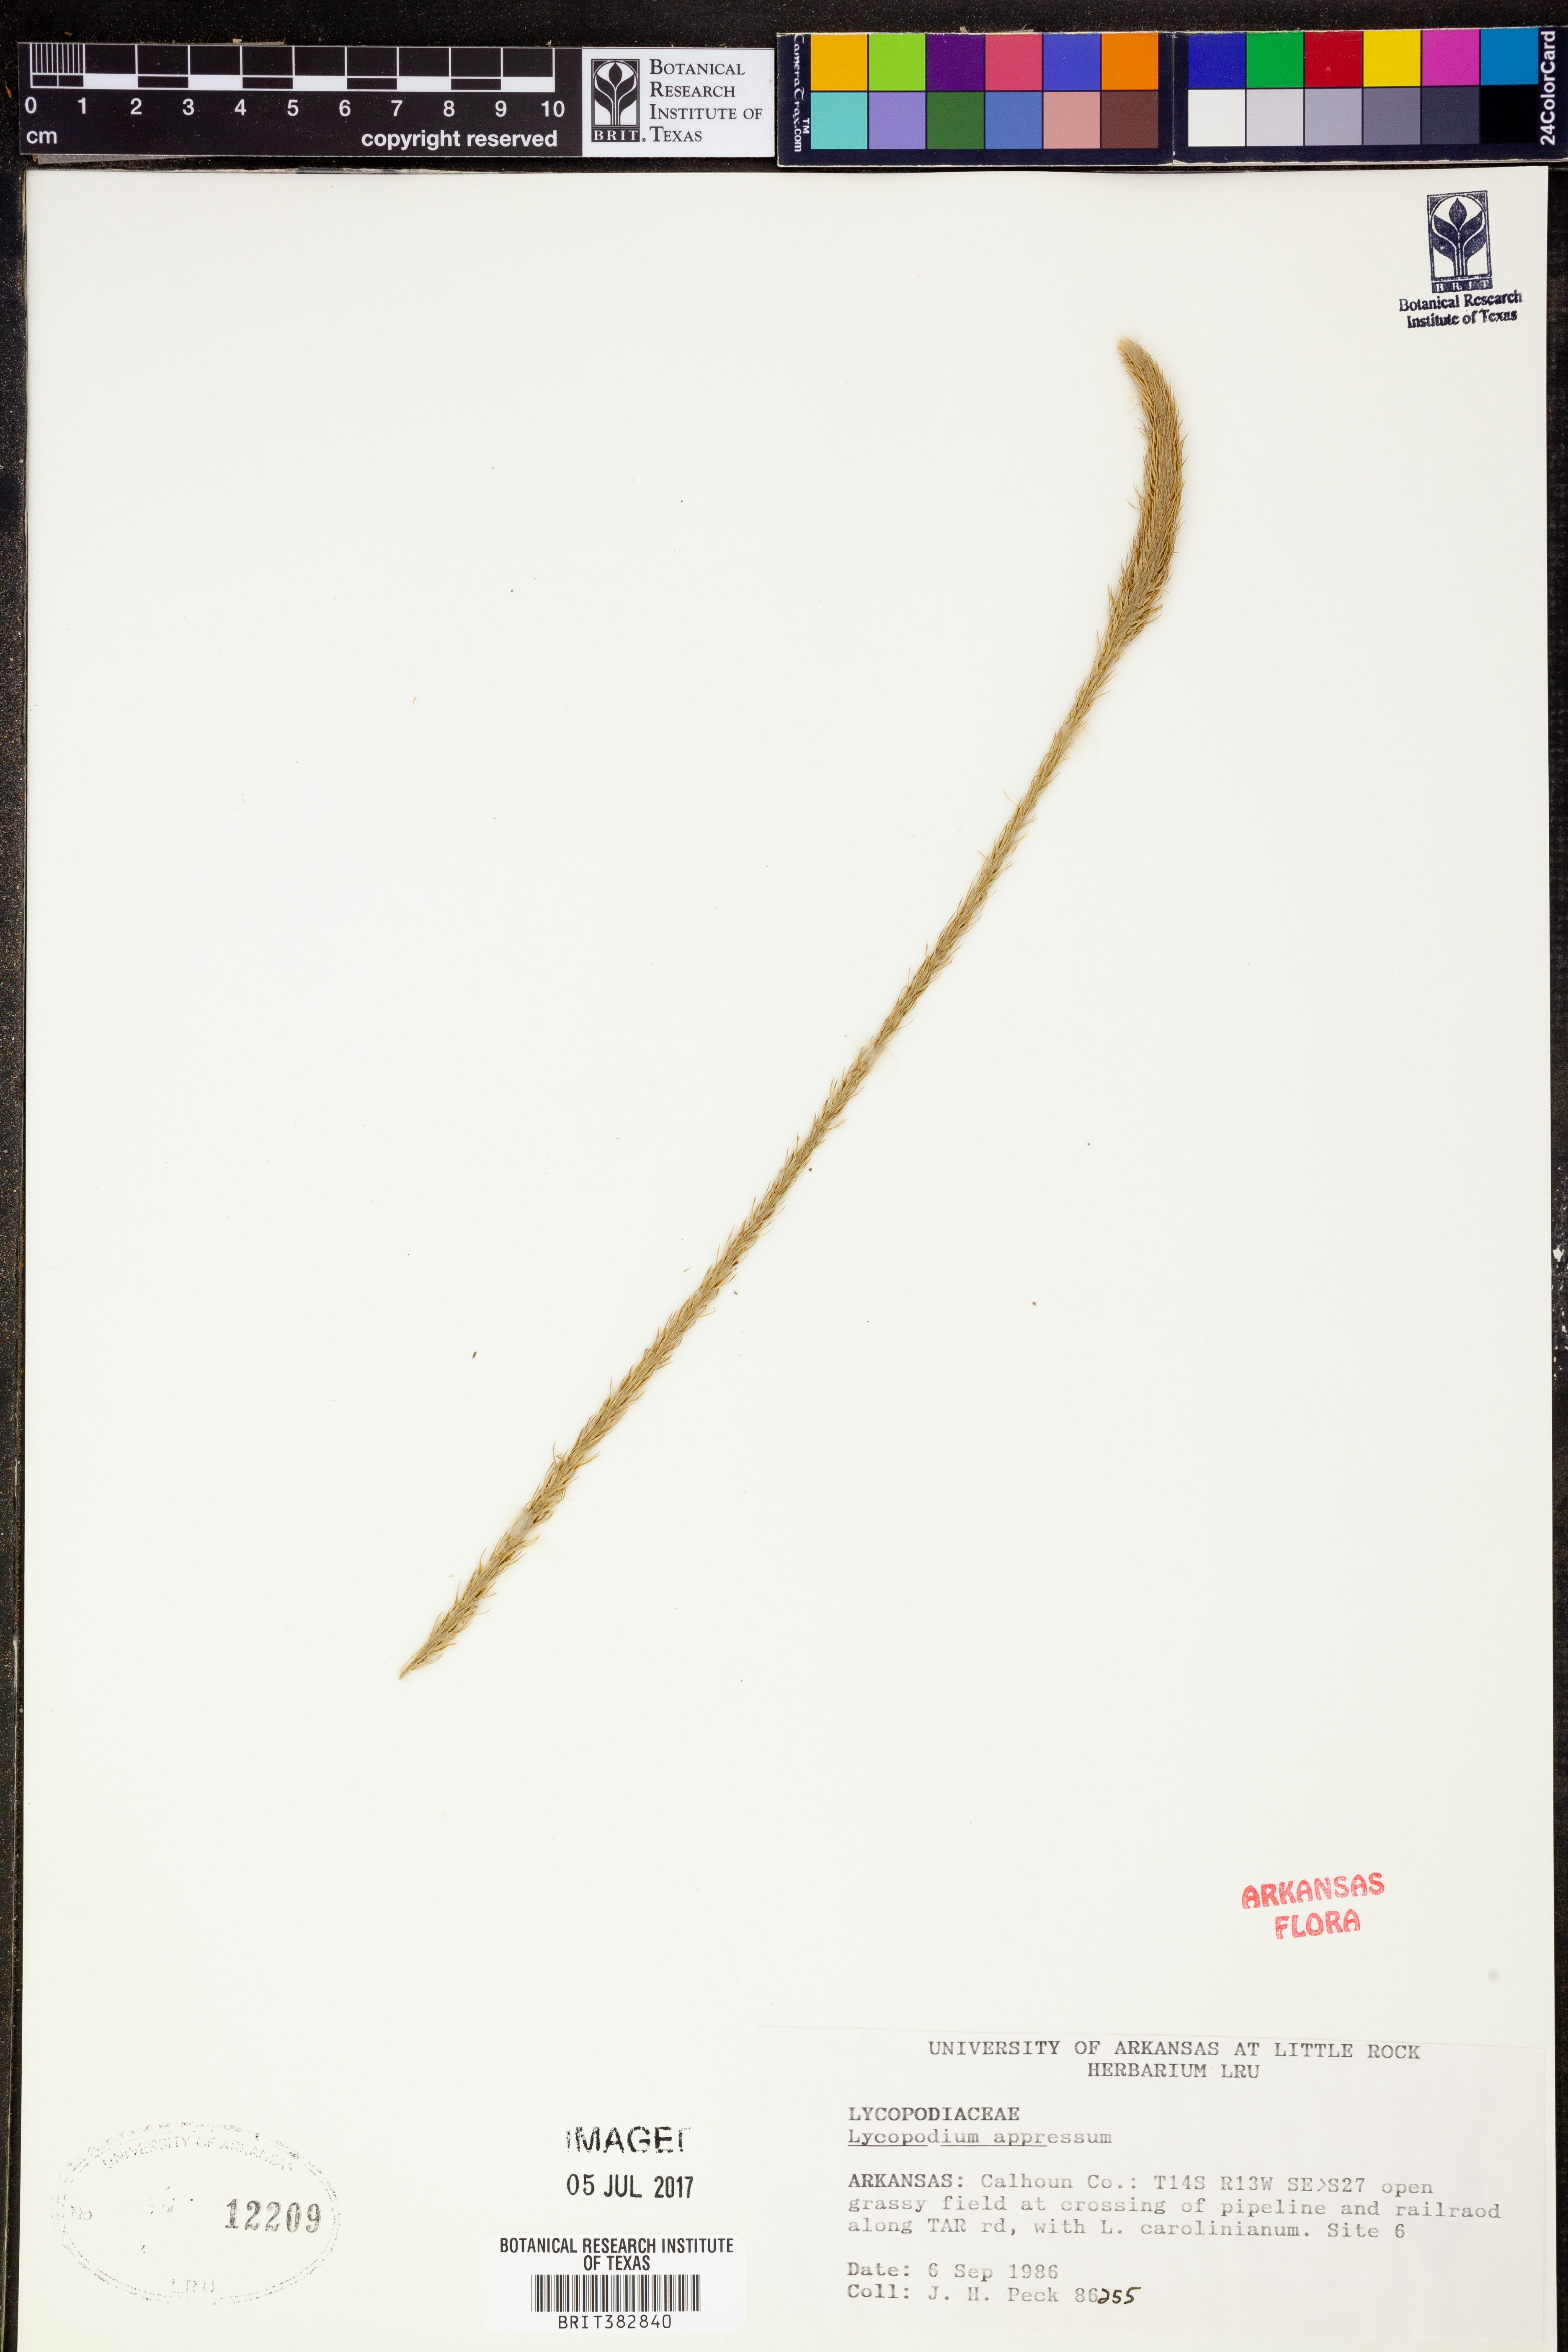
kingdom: Plantae
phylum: Tracheophyta
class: Lycopodiopsida
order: Lycopodiales
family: Lycopodiaceae
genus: Lycopodiella
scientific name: Lycopodiella appressa
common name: Appressed bog clubmoss
